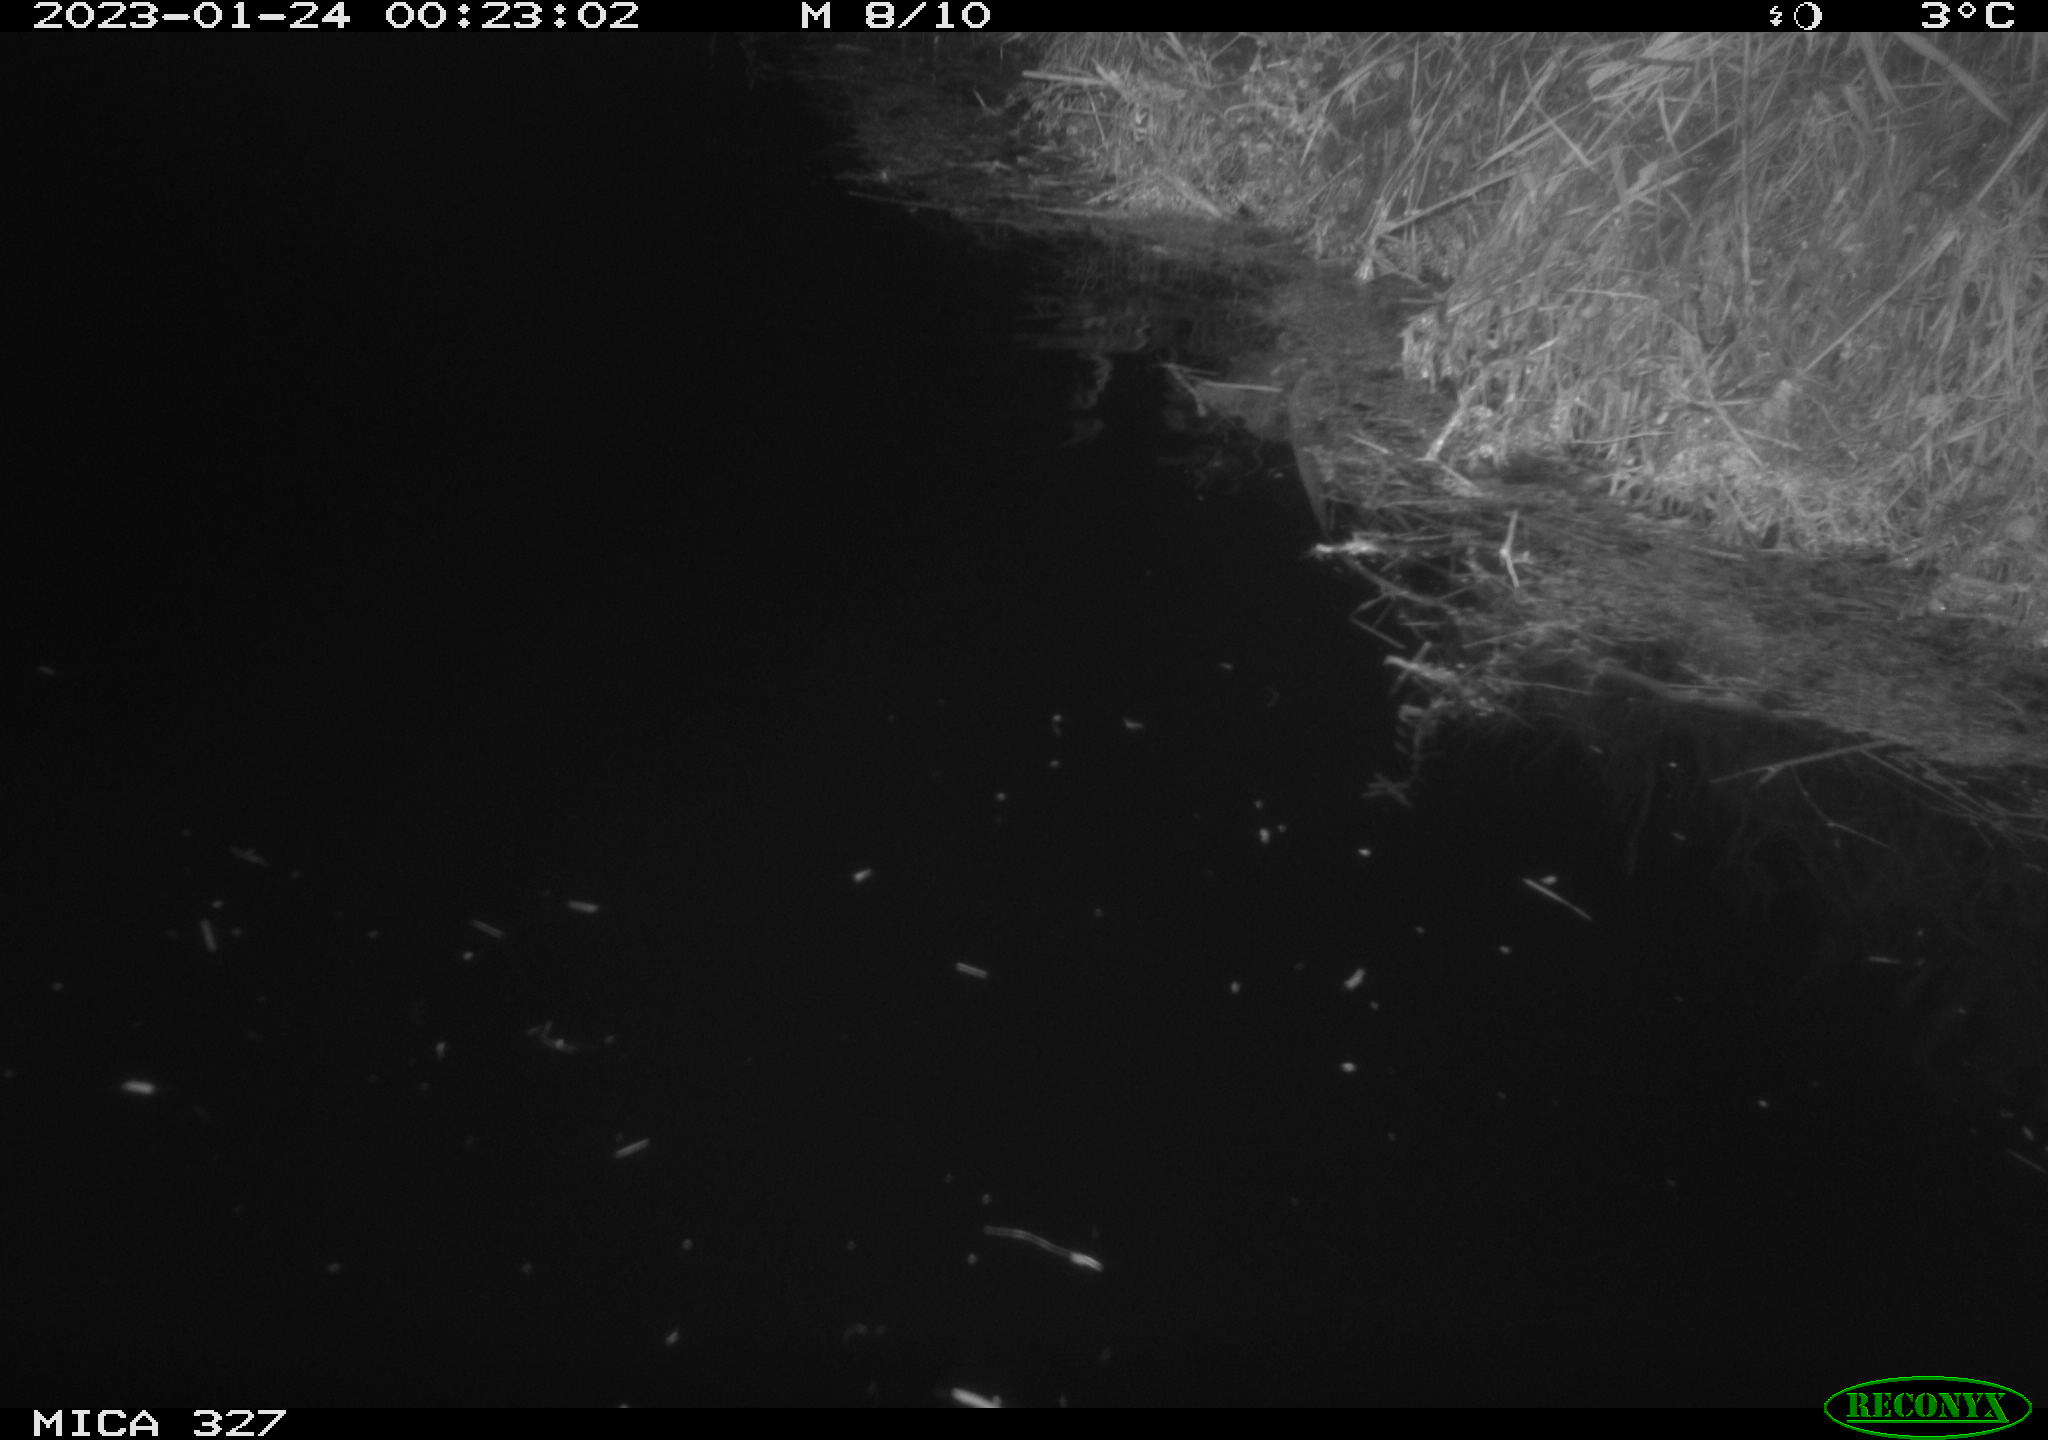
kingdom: Animalia
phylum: Chordata
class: Mammalia
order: Rodentia
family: Cricetidae
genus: Ondatra
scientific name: Ondatra zibethicus
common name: Muskrat
